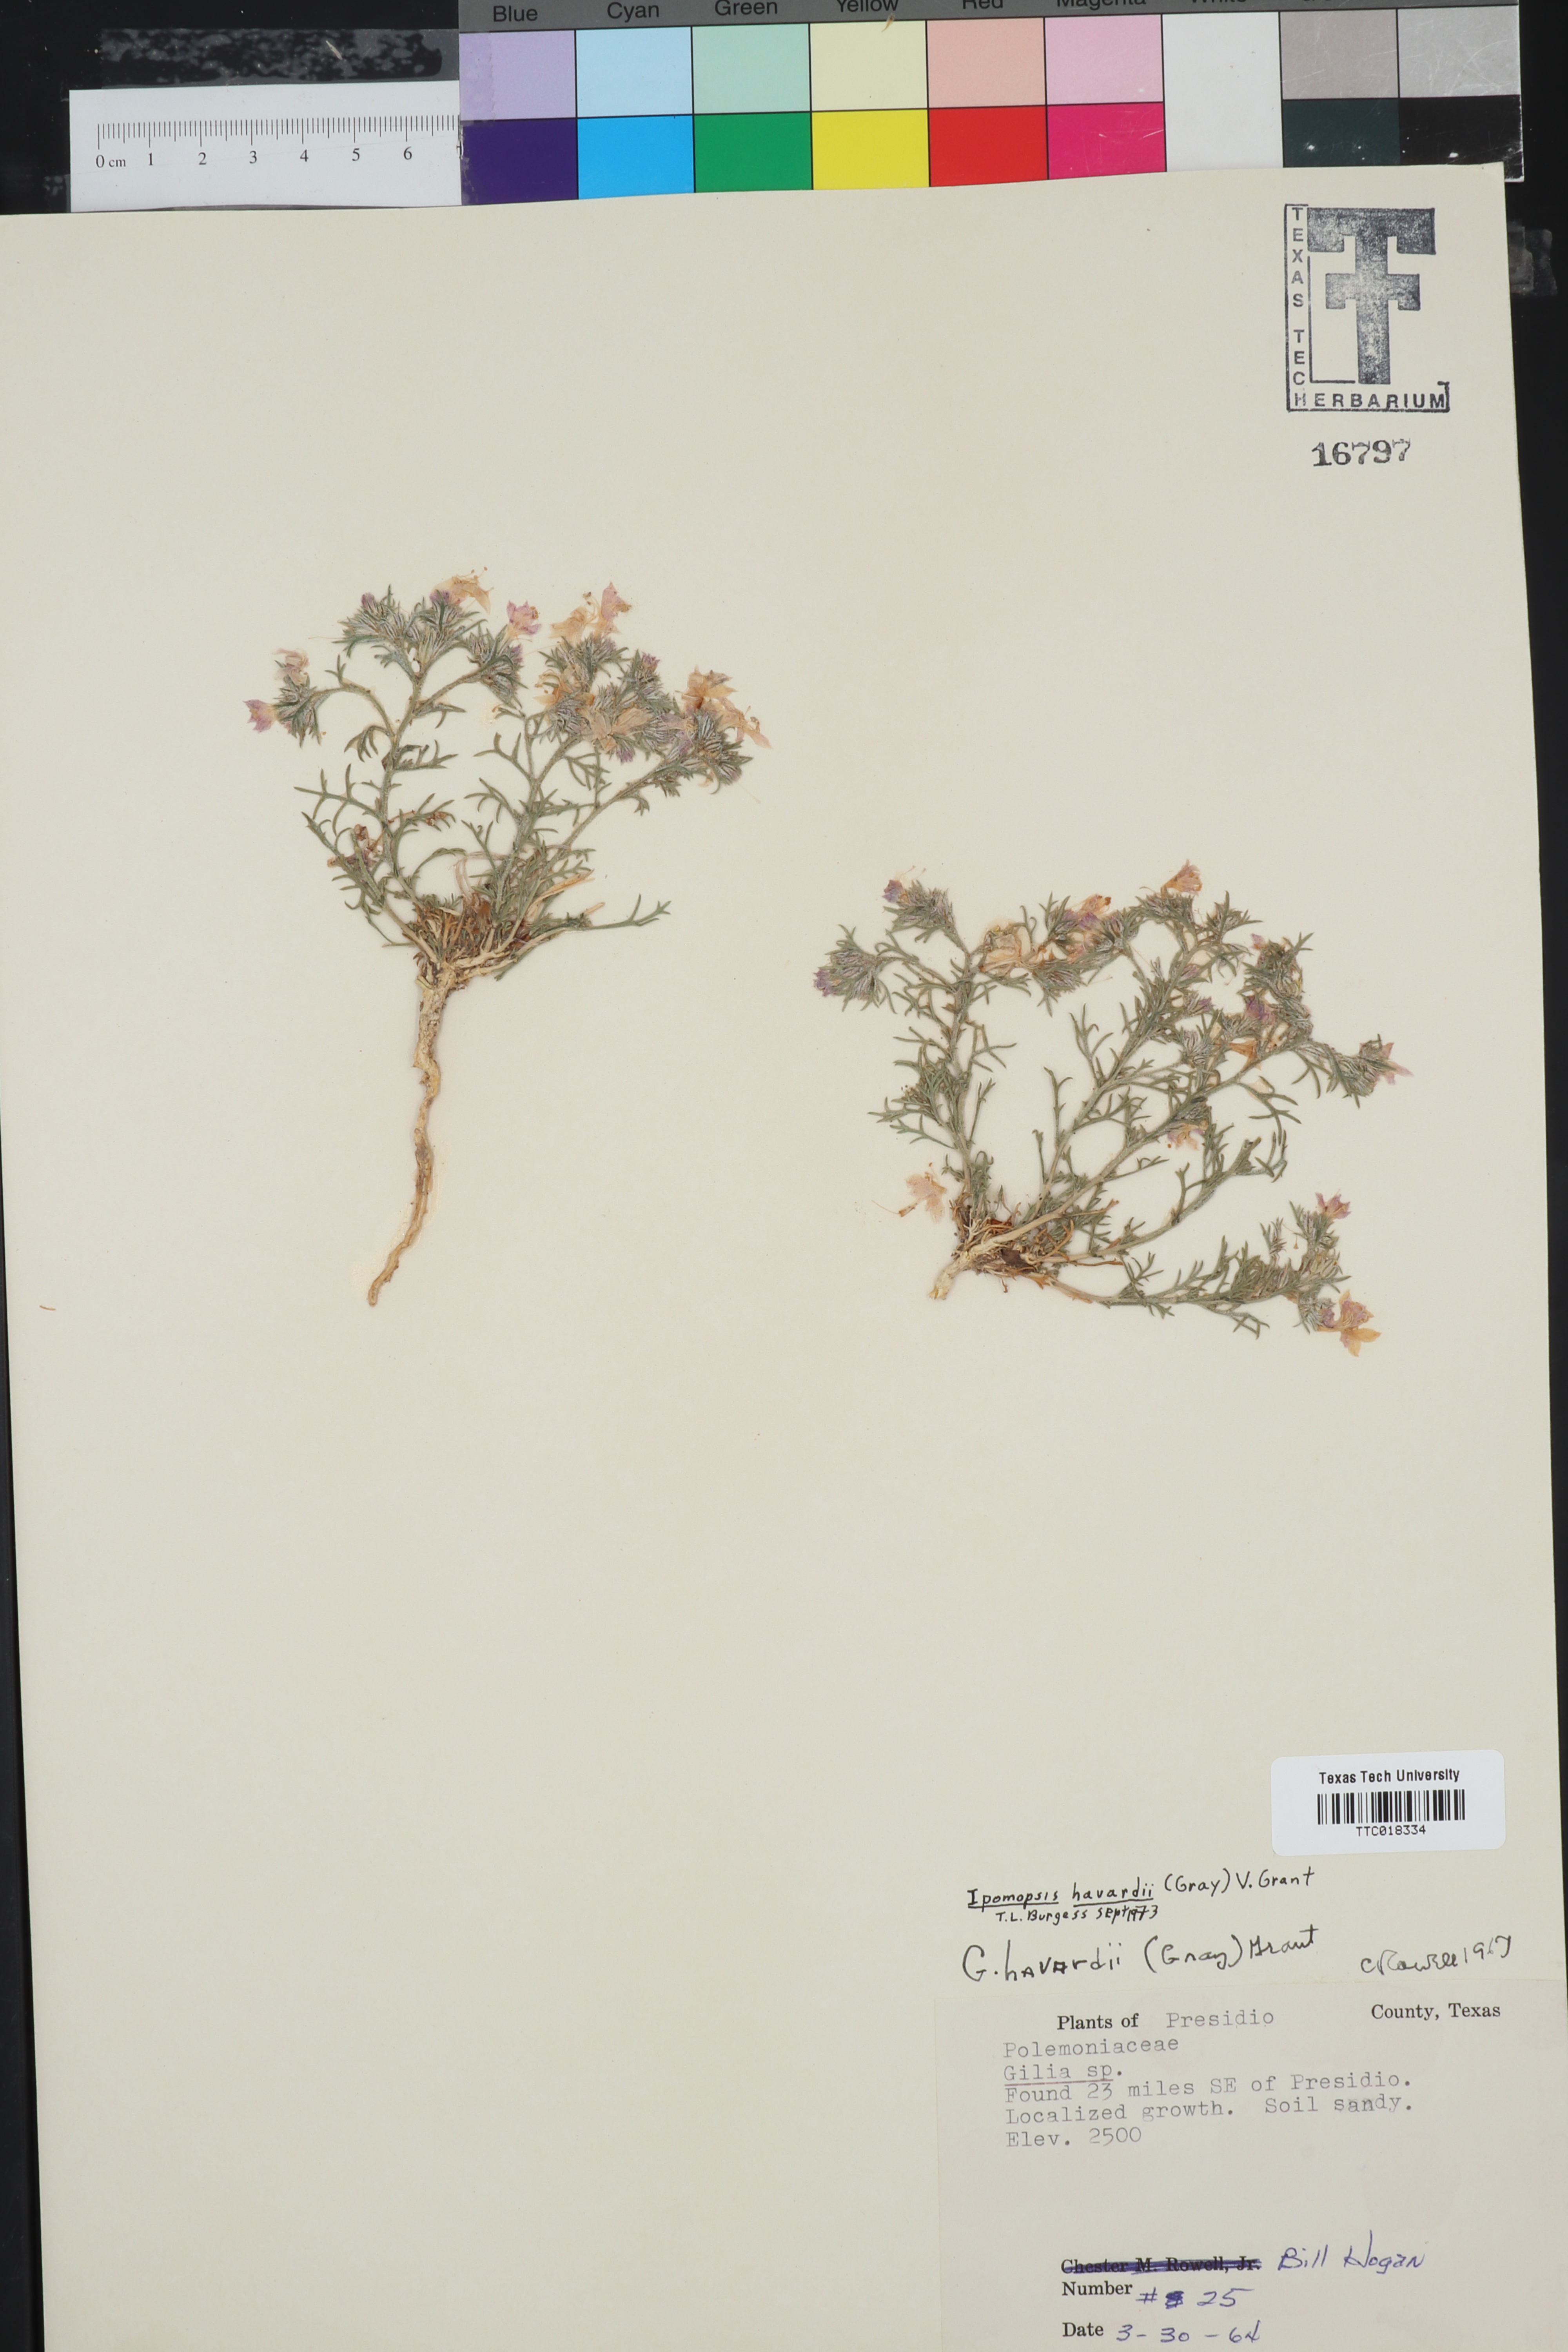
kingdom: Plantae
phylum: Tracheophyta
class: Magnoliopsida
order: Ericales
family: Polemoniaceae
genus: Dayia
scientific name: Dayia havardii
